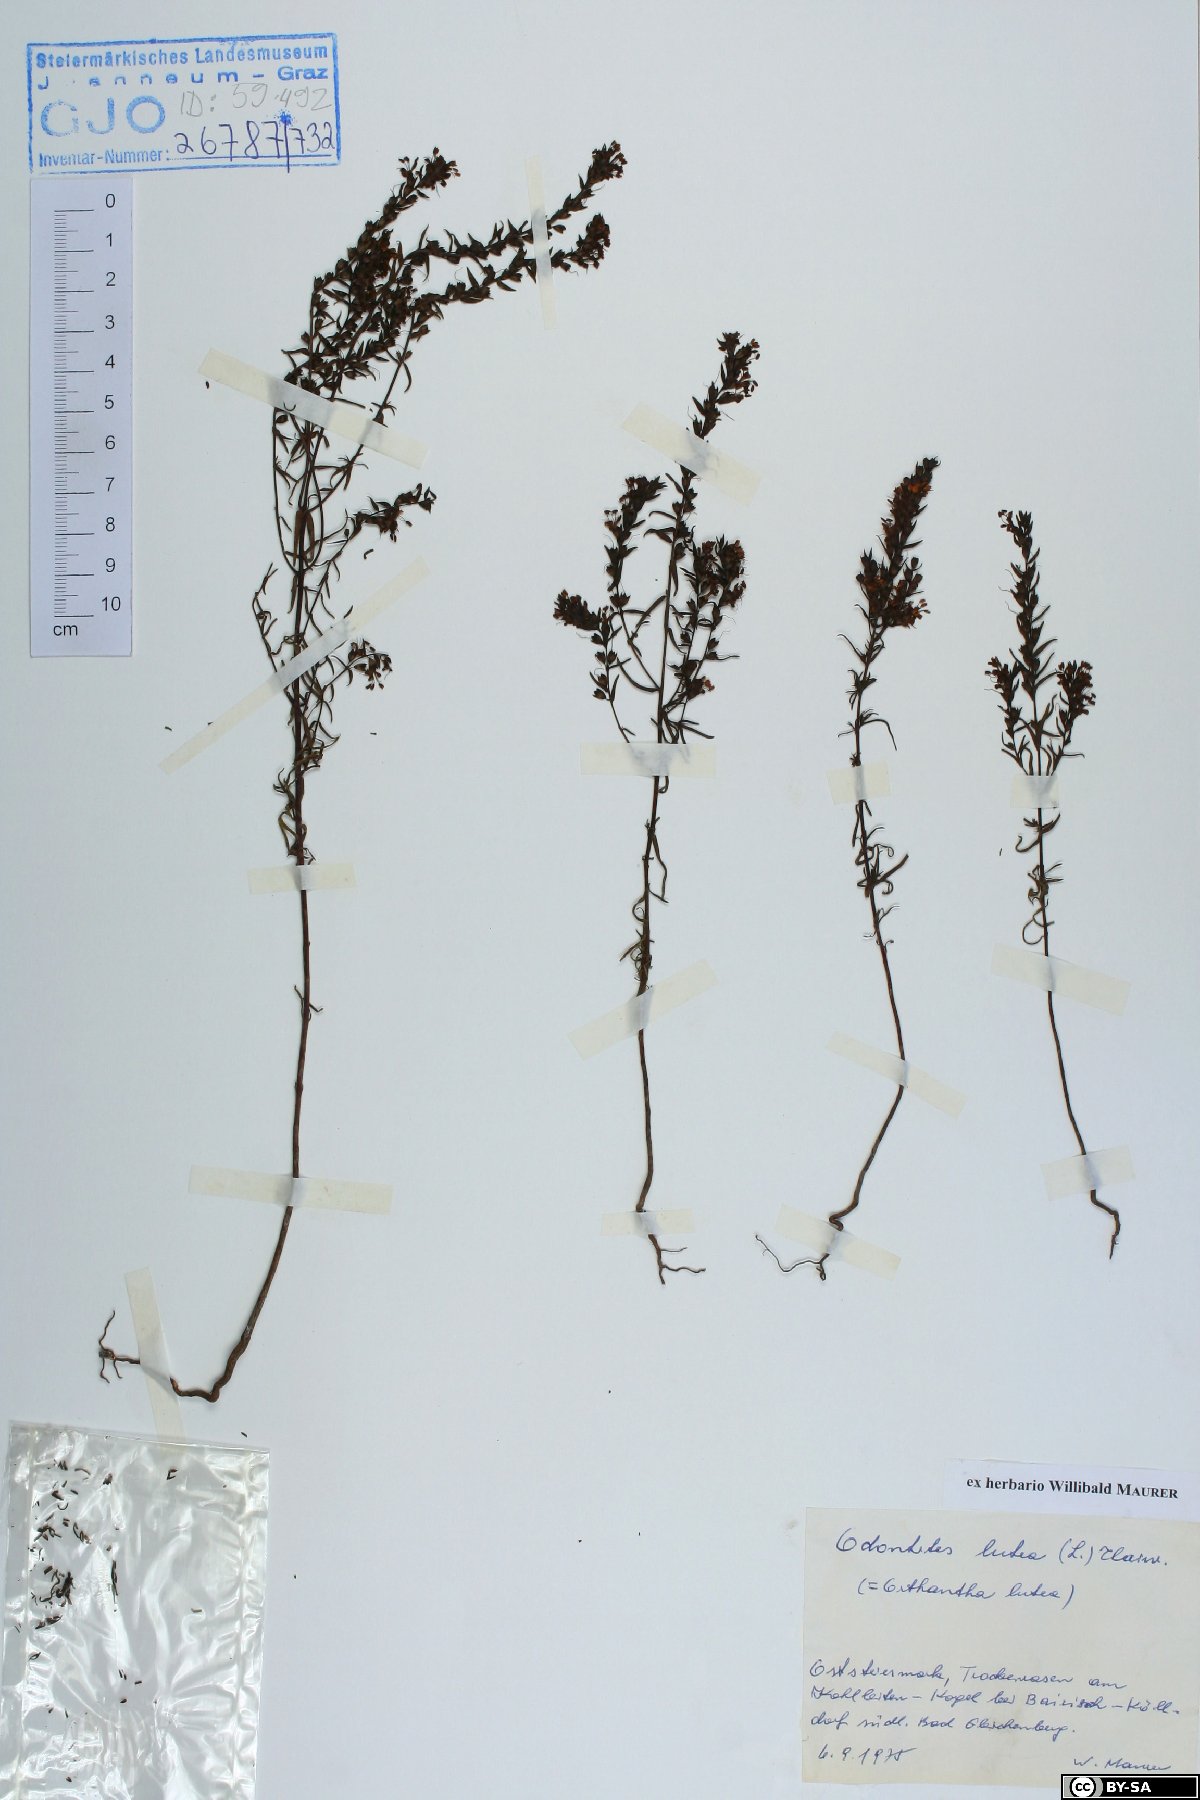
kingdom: Plantae
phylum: Tracheophyta
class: Magnoliopsida
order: Lamiales
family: Orobanchaceae
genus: Odontites
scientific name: Odontites luteus
